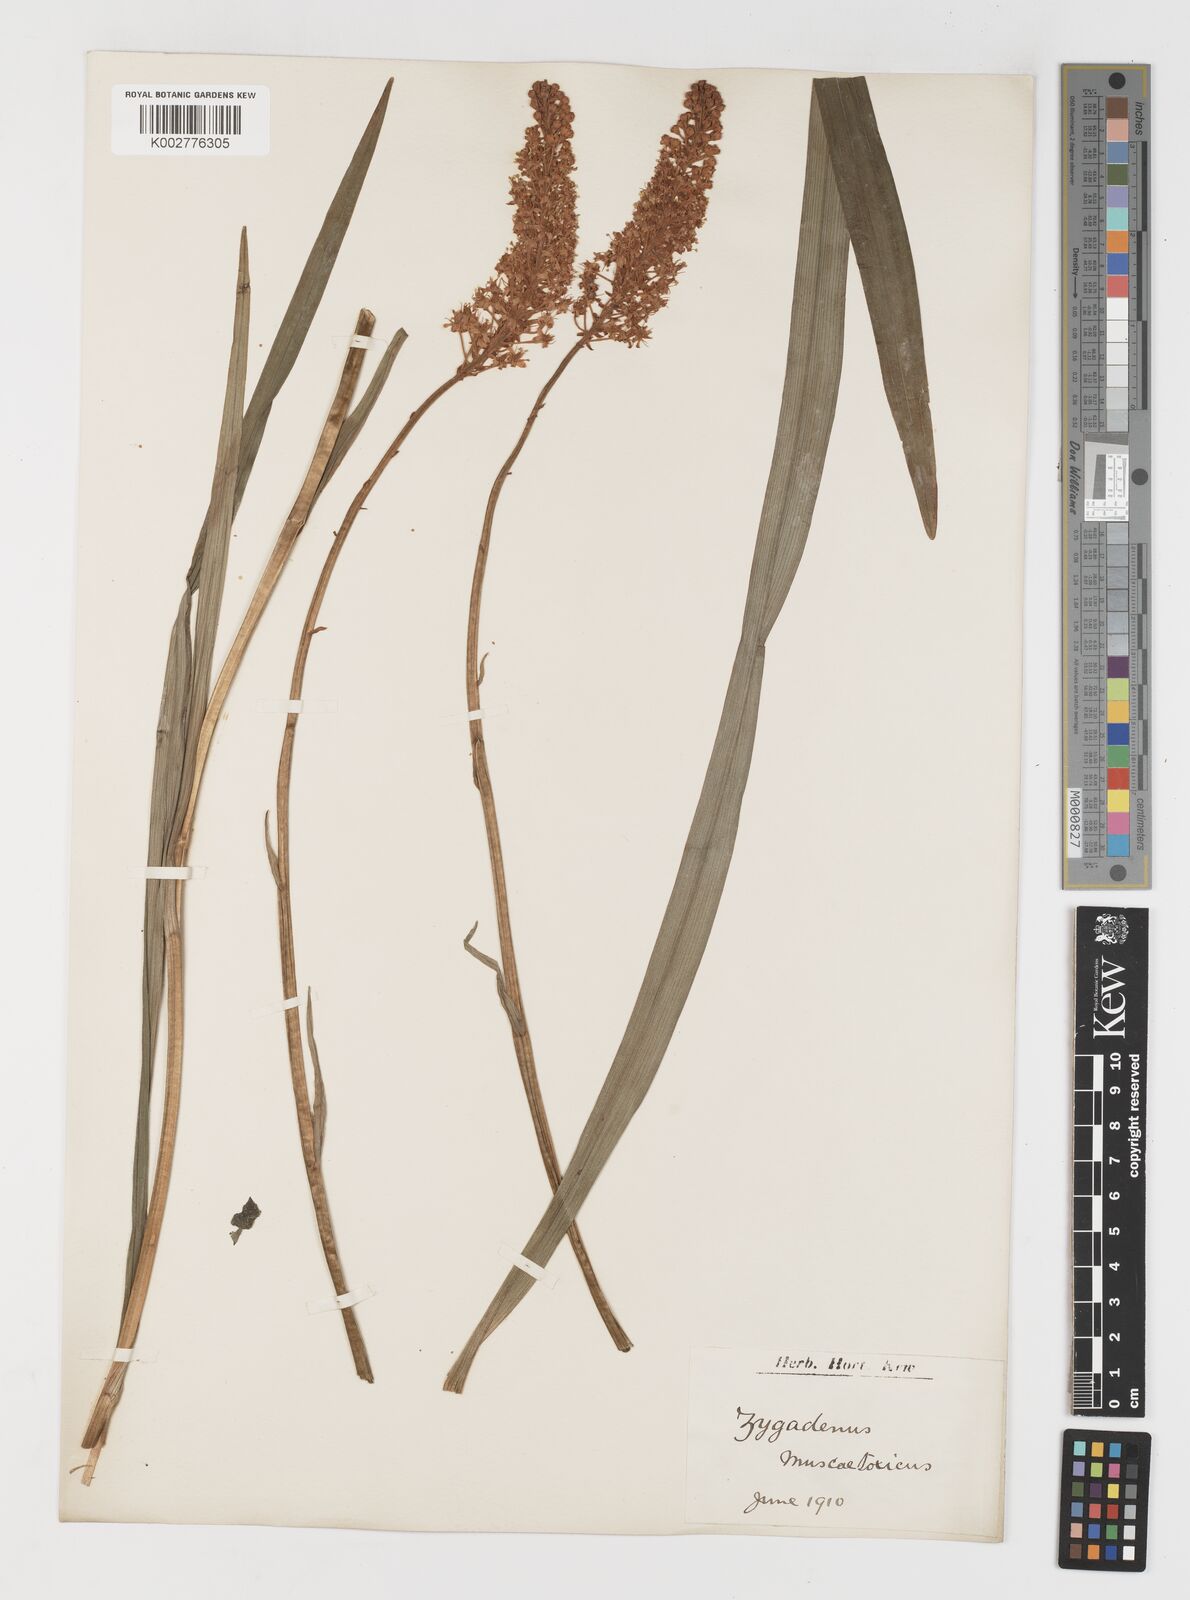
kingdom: Plantae
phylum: Tracheophyta
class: Liliopsida
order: Liliales
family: Melanthiaceae
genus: Amianthium
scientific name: Amianthium muscitoxicum
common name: Fly-poison
